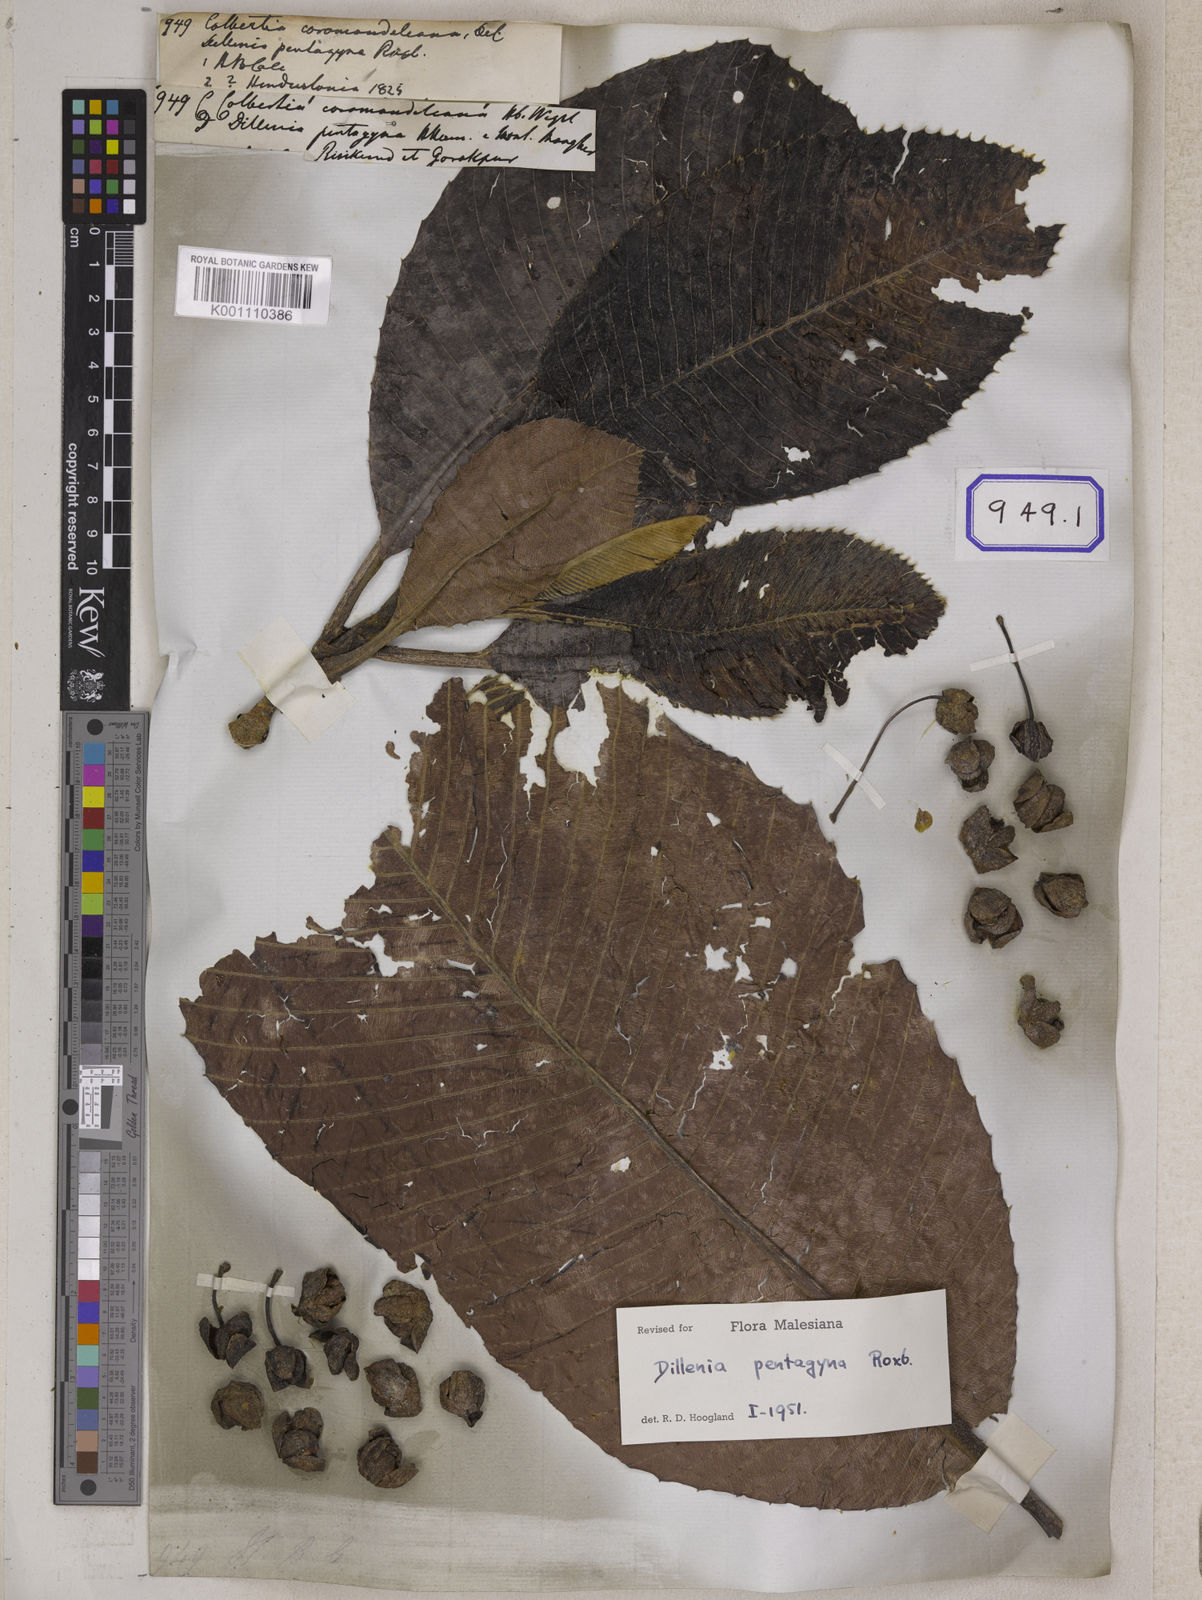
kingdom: Plantae
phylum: Tracheophyta
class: Magnoliopsida
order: Dilleniales
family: Dilleniaceae
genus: Dillenia
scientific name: Dillenia pentagyna
